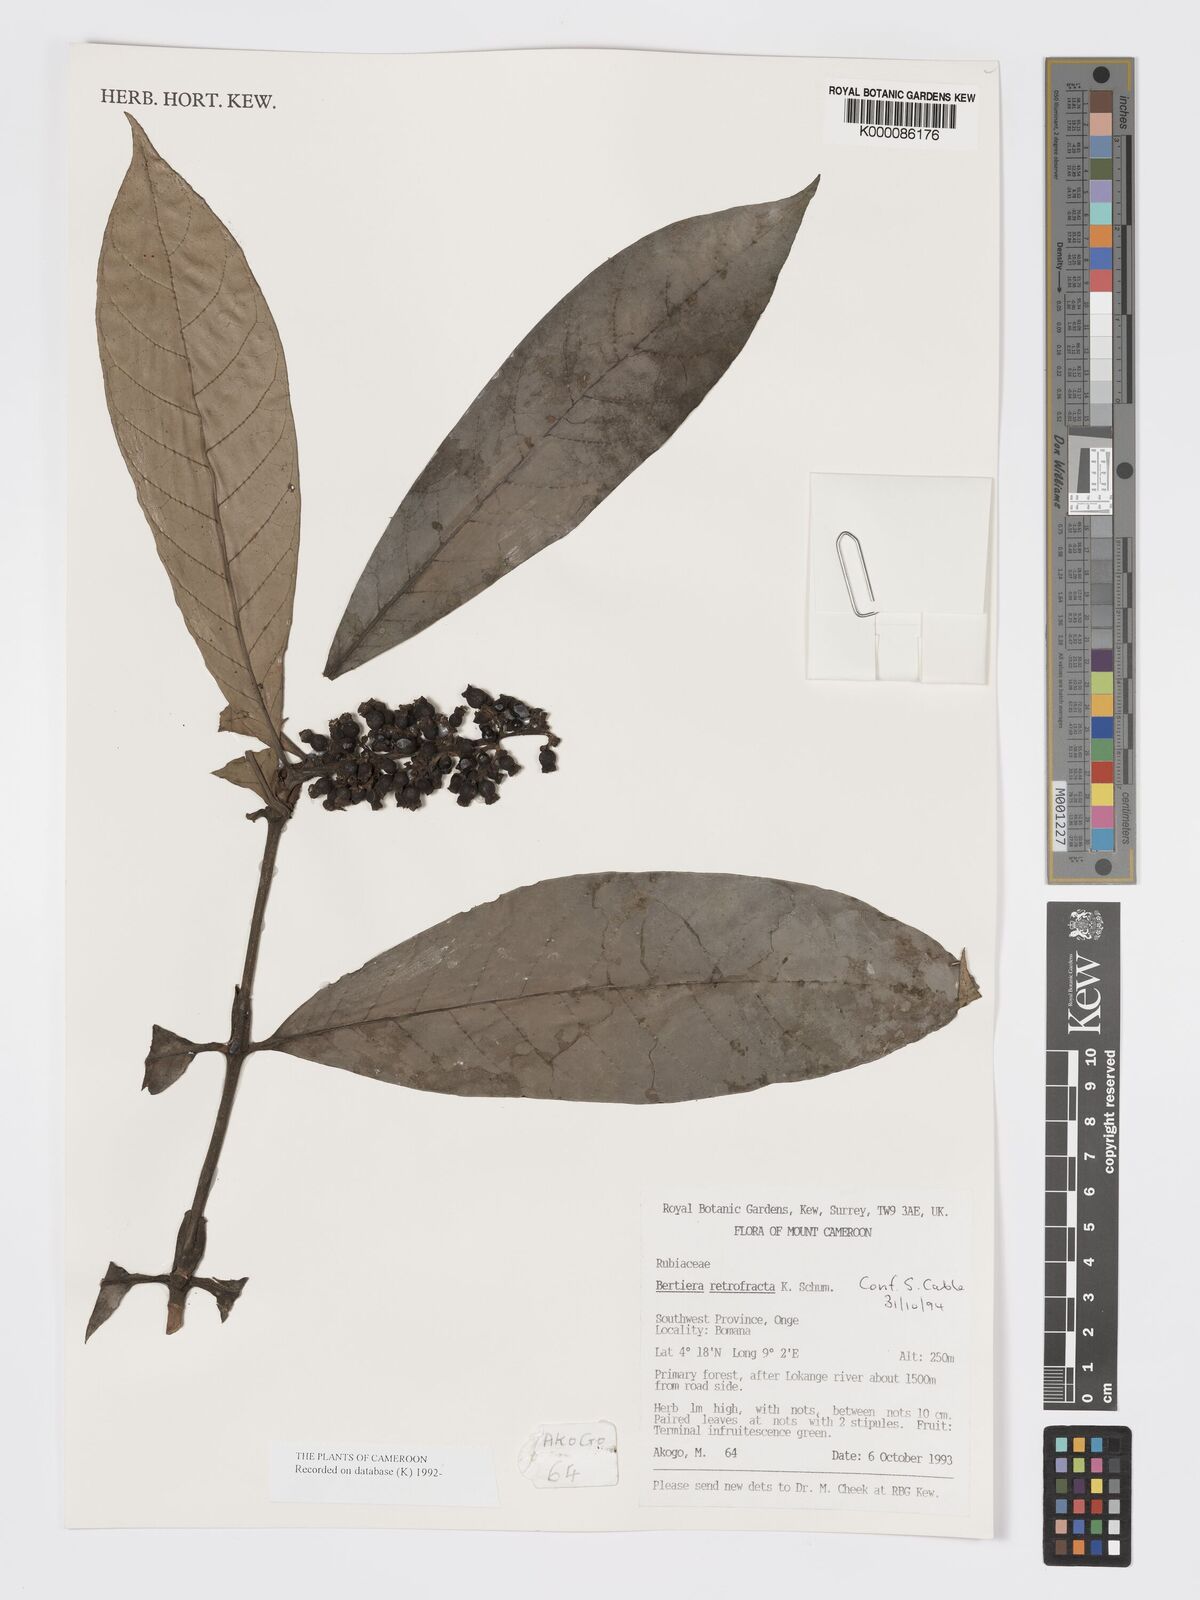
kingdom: Plantae
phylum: Tracheophyta
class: Magnoliopsida
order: Gentianales
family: Rubiaceae
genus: Bertiera
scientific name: Bertiera retrofracta
